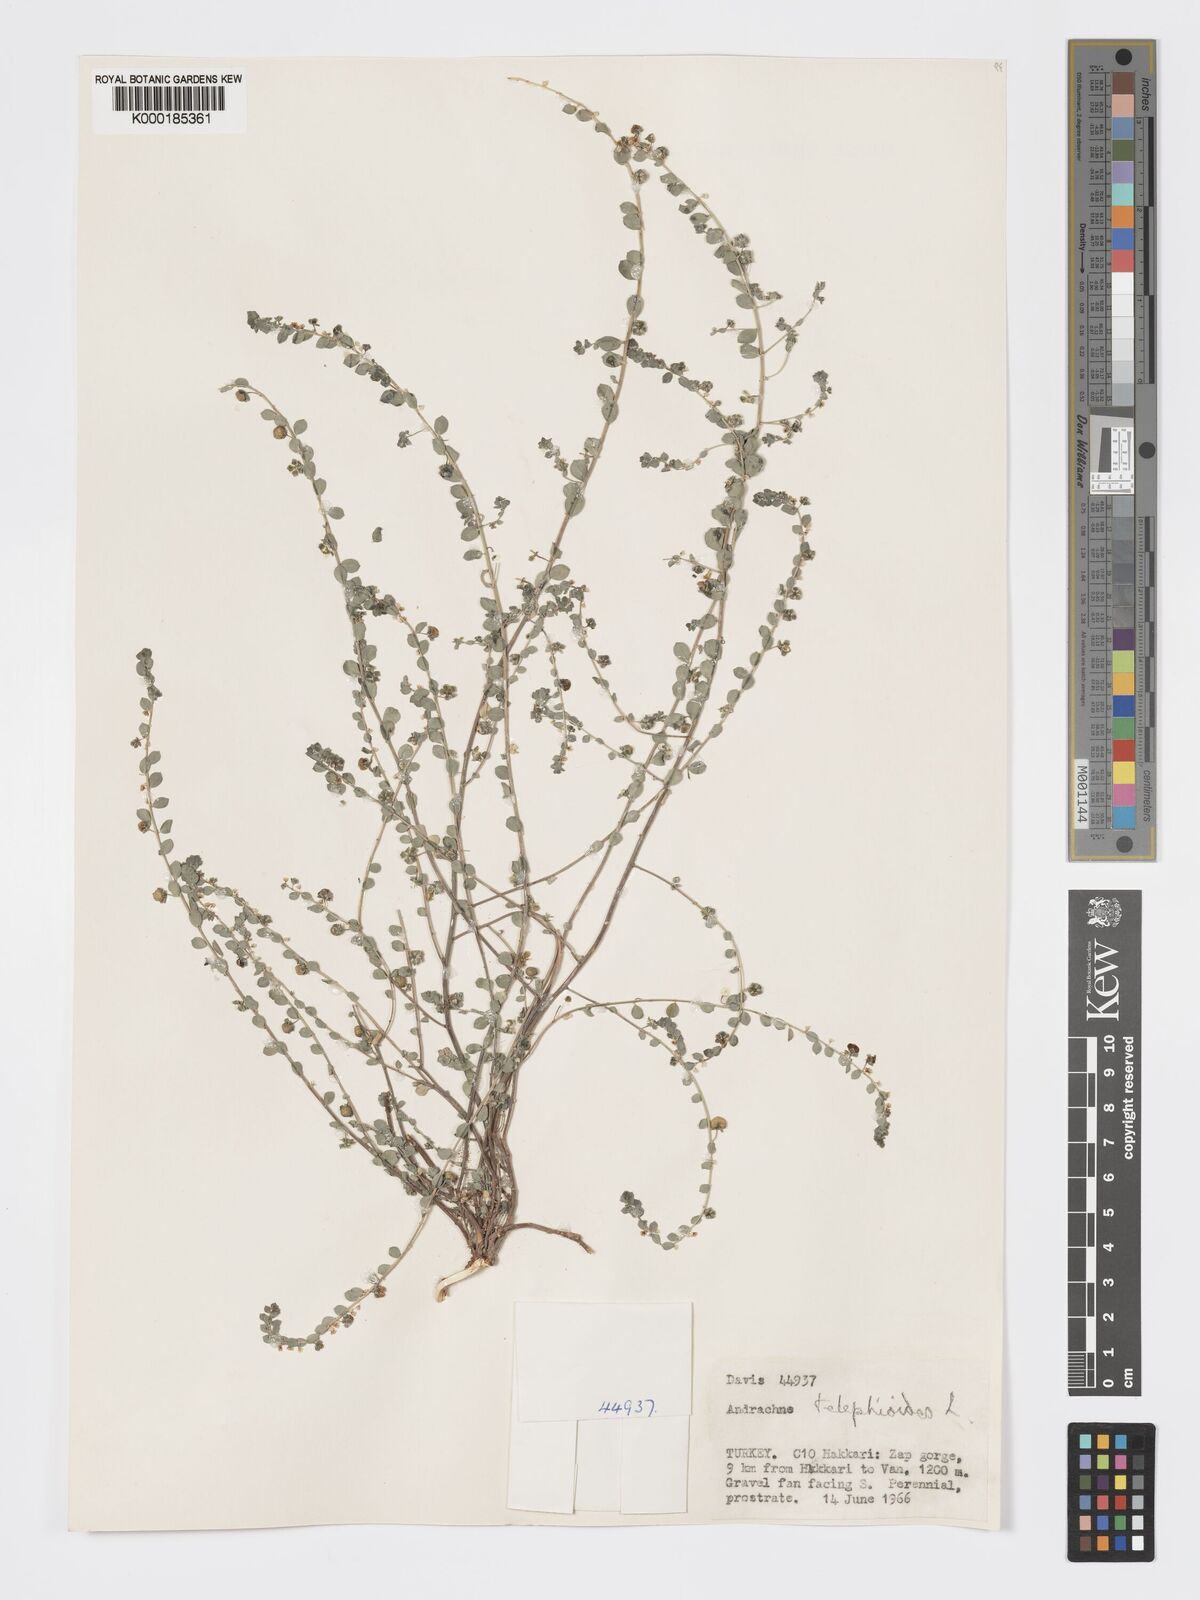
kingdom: Plantae
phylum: Tracheophyta
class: Magnoliopsida
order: Malpighiales
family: Phyllanthaceae
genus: Andrachne
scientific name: Andrachne telephioides
